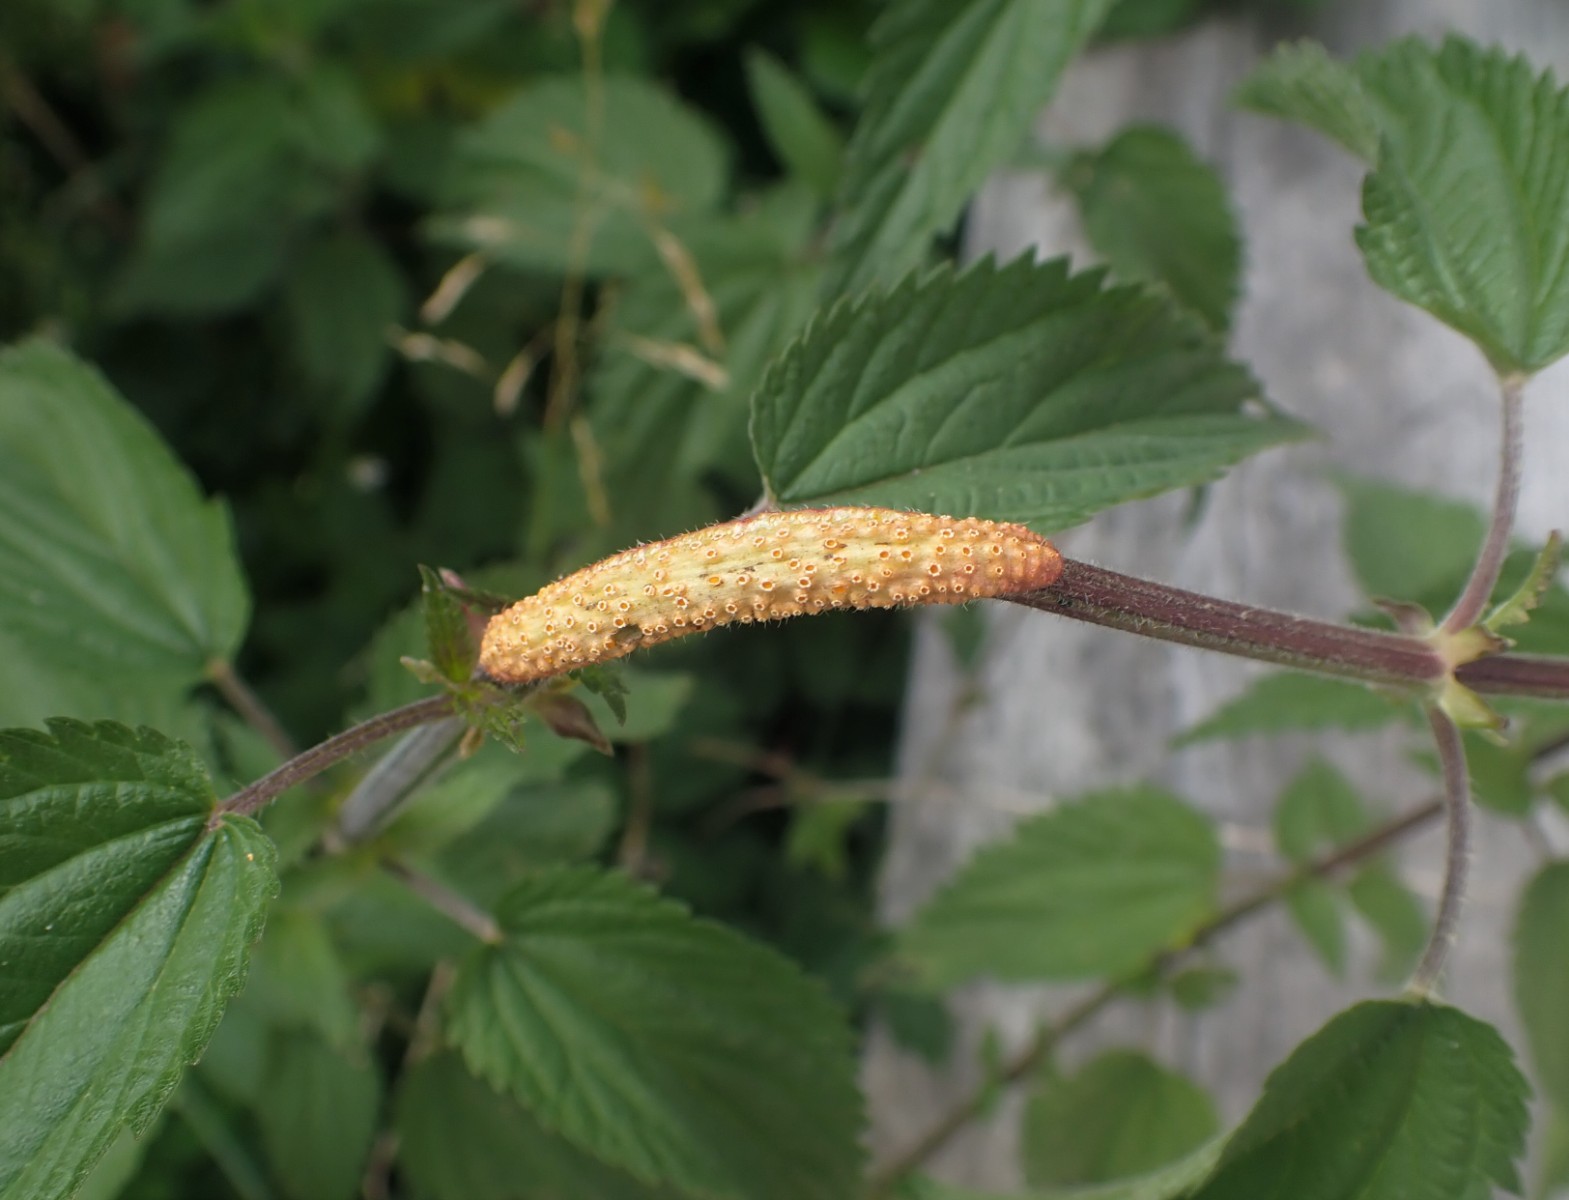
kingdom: Fungi
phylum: Basidiomycota
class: Pucciniomycetes
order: Pucciniales
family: Pucciniaceae
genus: Puccinia
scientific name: Puccinia urticata
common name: nældegalle-tvecellerust
